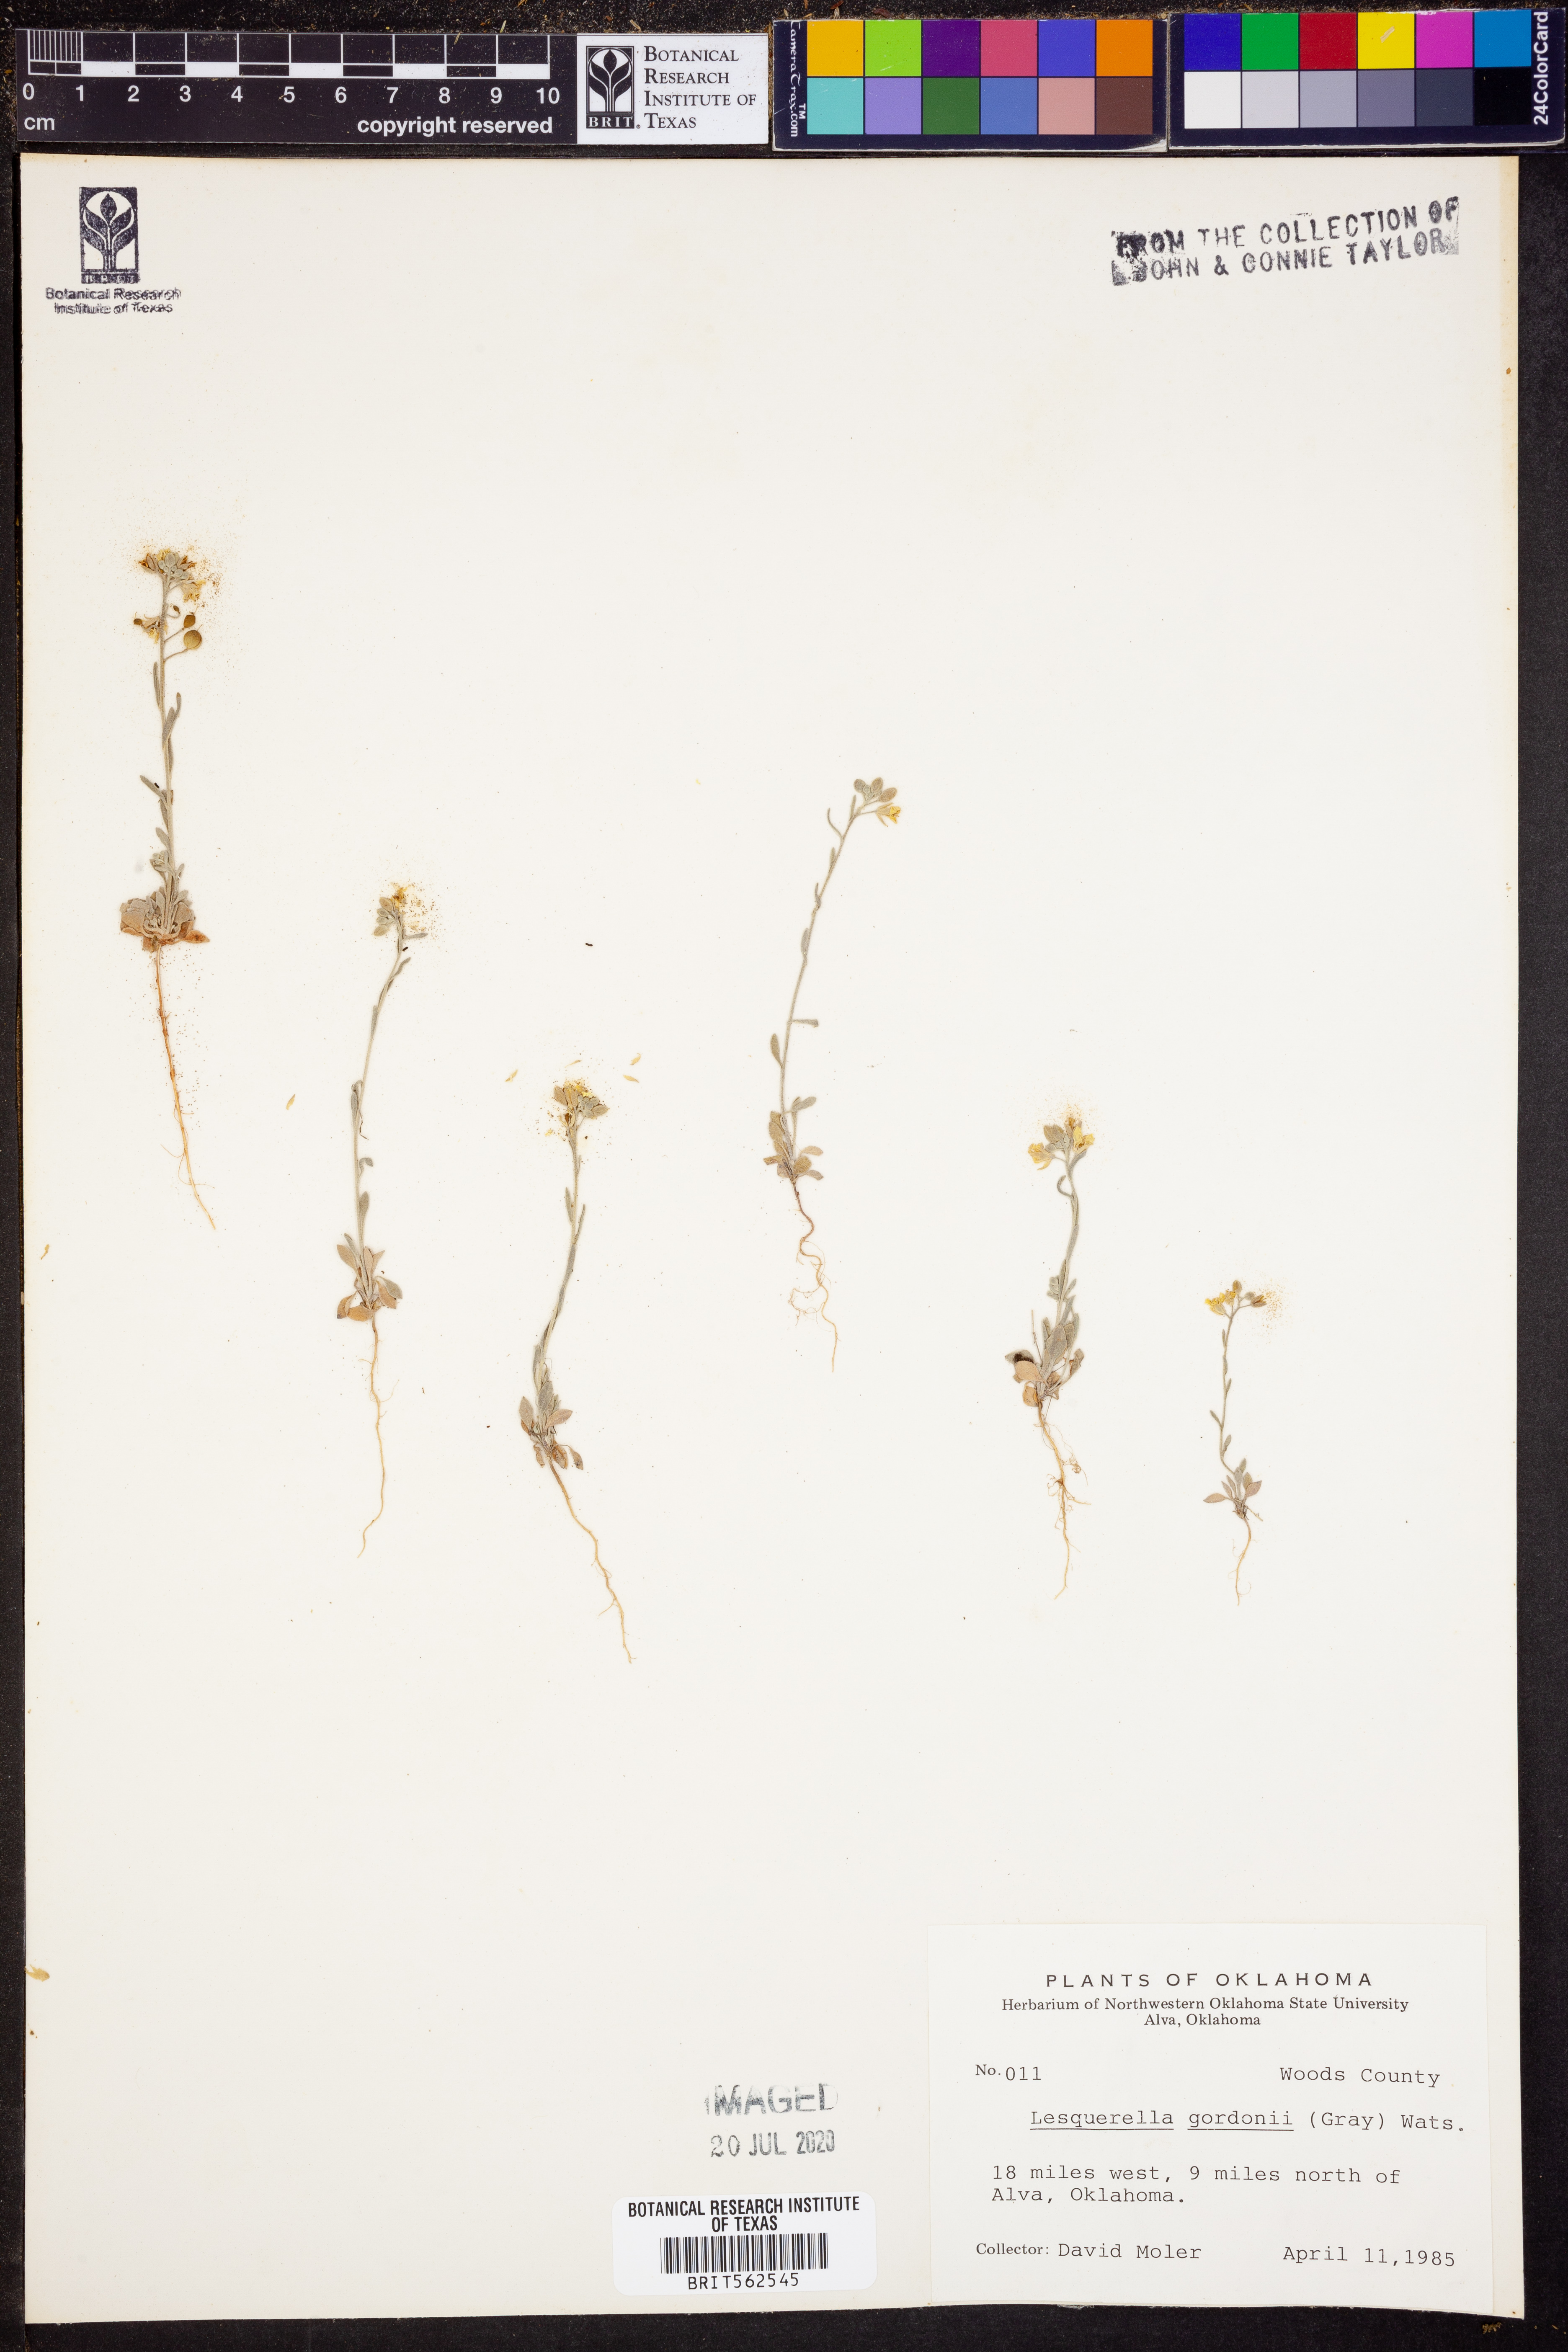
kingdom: Plantae
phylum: Tracheophyta
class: Magnoliopsida
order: Brassicales
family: Brassicaceae
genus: Physaria
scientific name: Physaria gordonii
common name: Gordon's bladderpod
